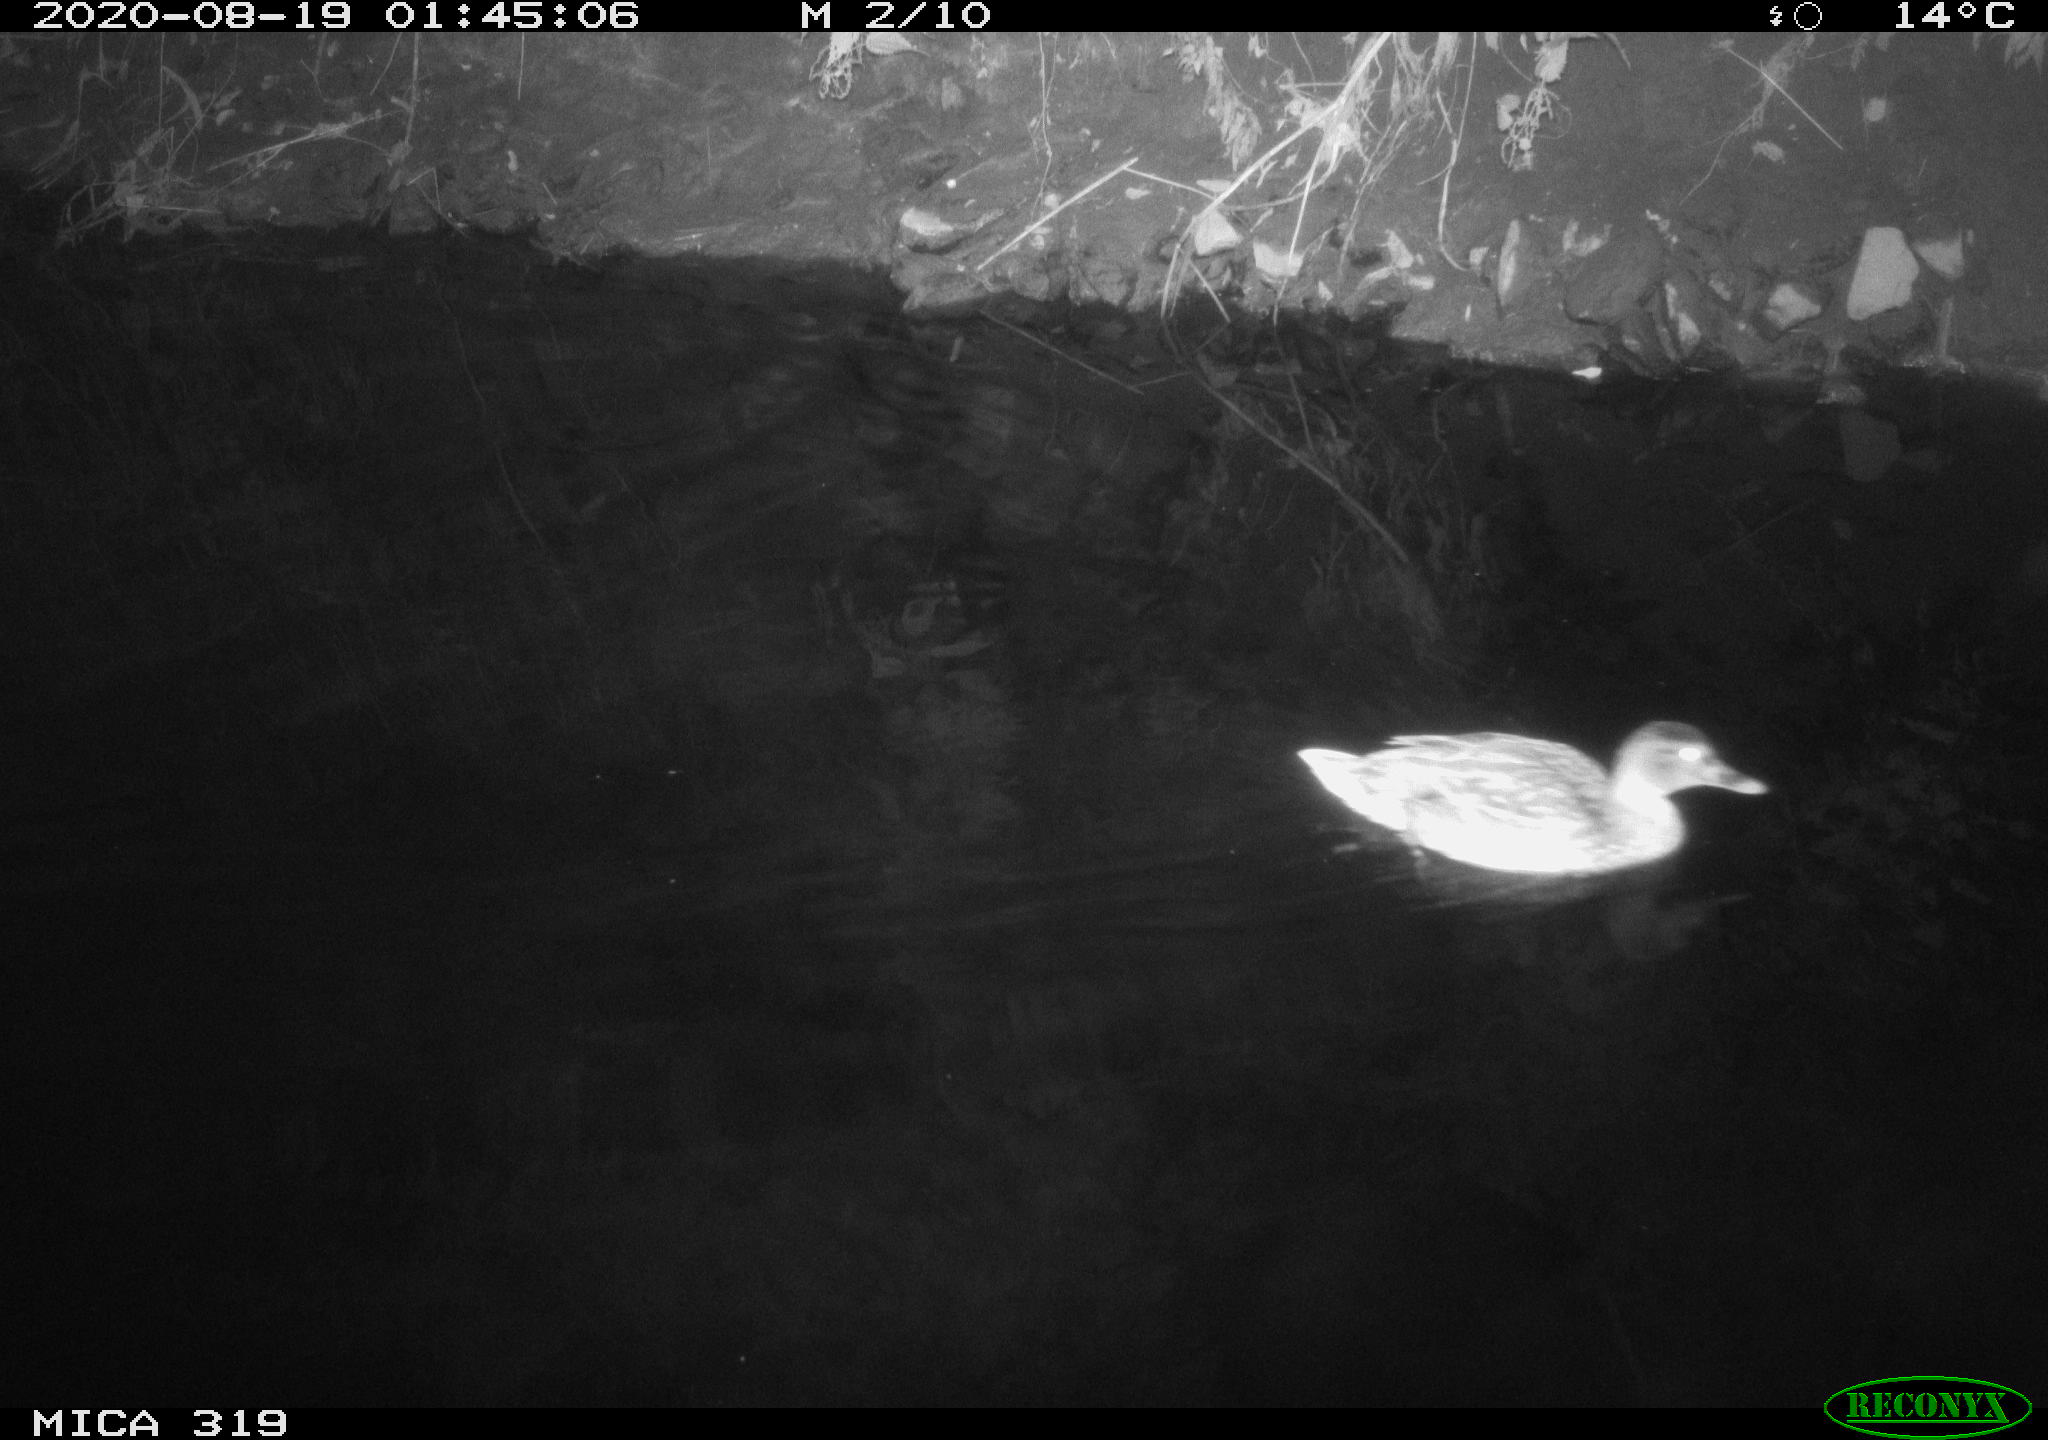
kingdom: Animalia
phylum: Chordata
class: Aves
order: Anseriformes
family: Anatidae
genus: Anas
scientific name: Anas platyrhynchos
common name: Mallard
